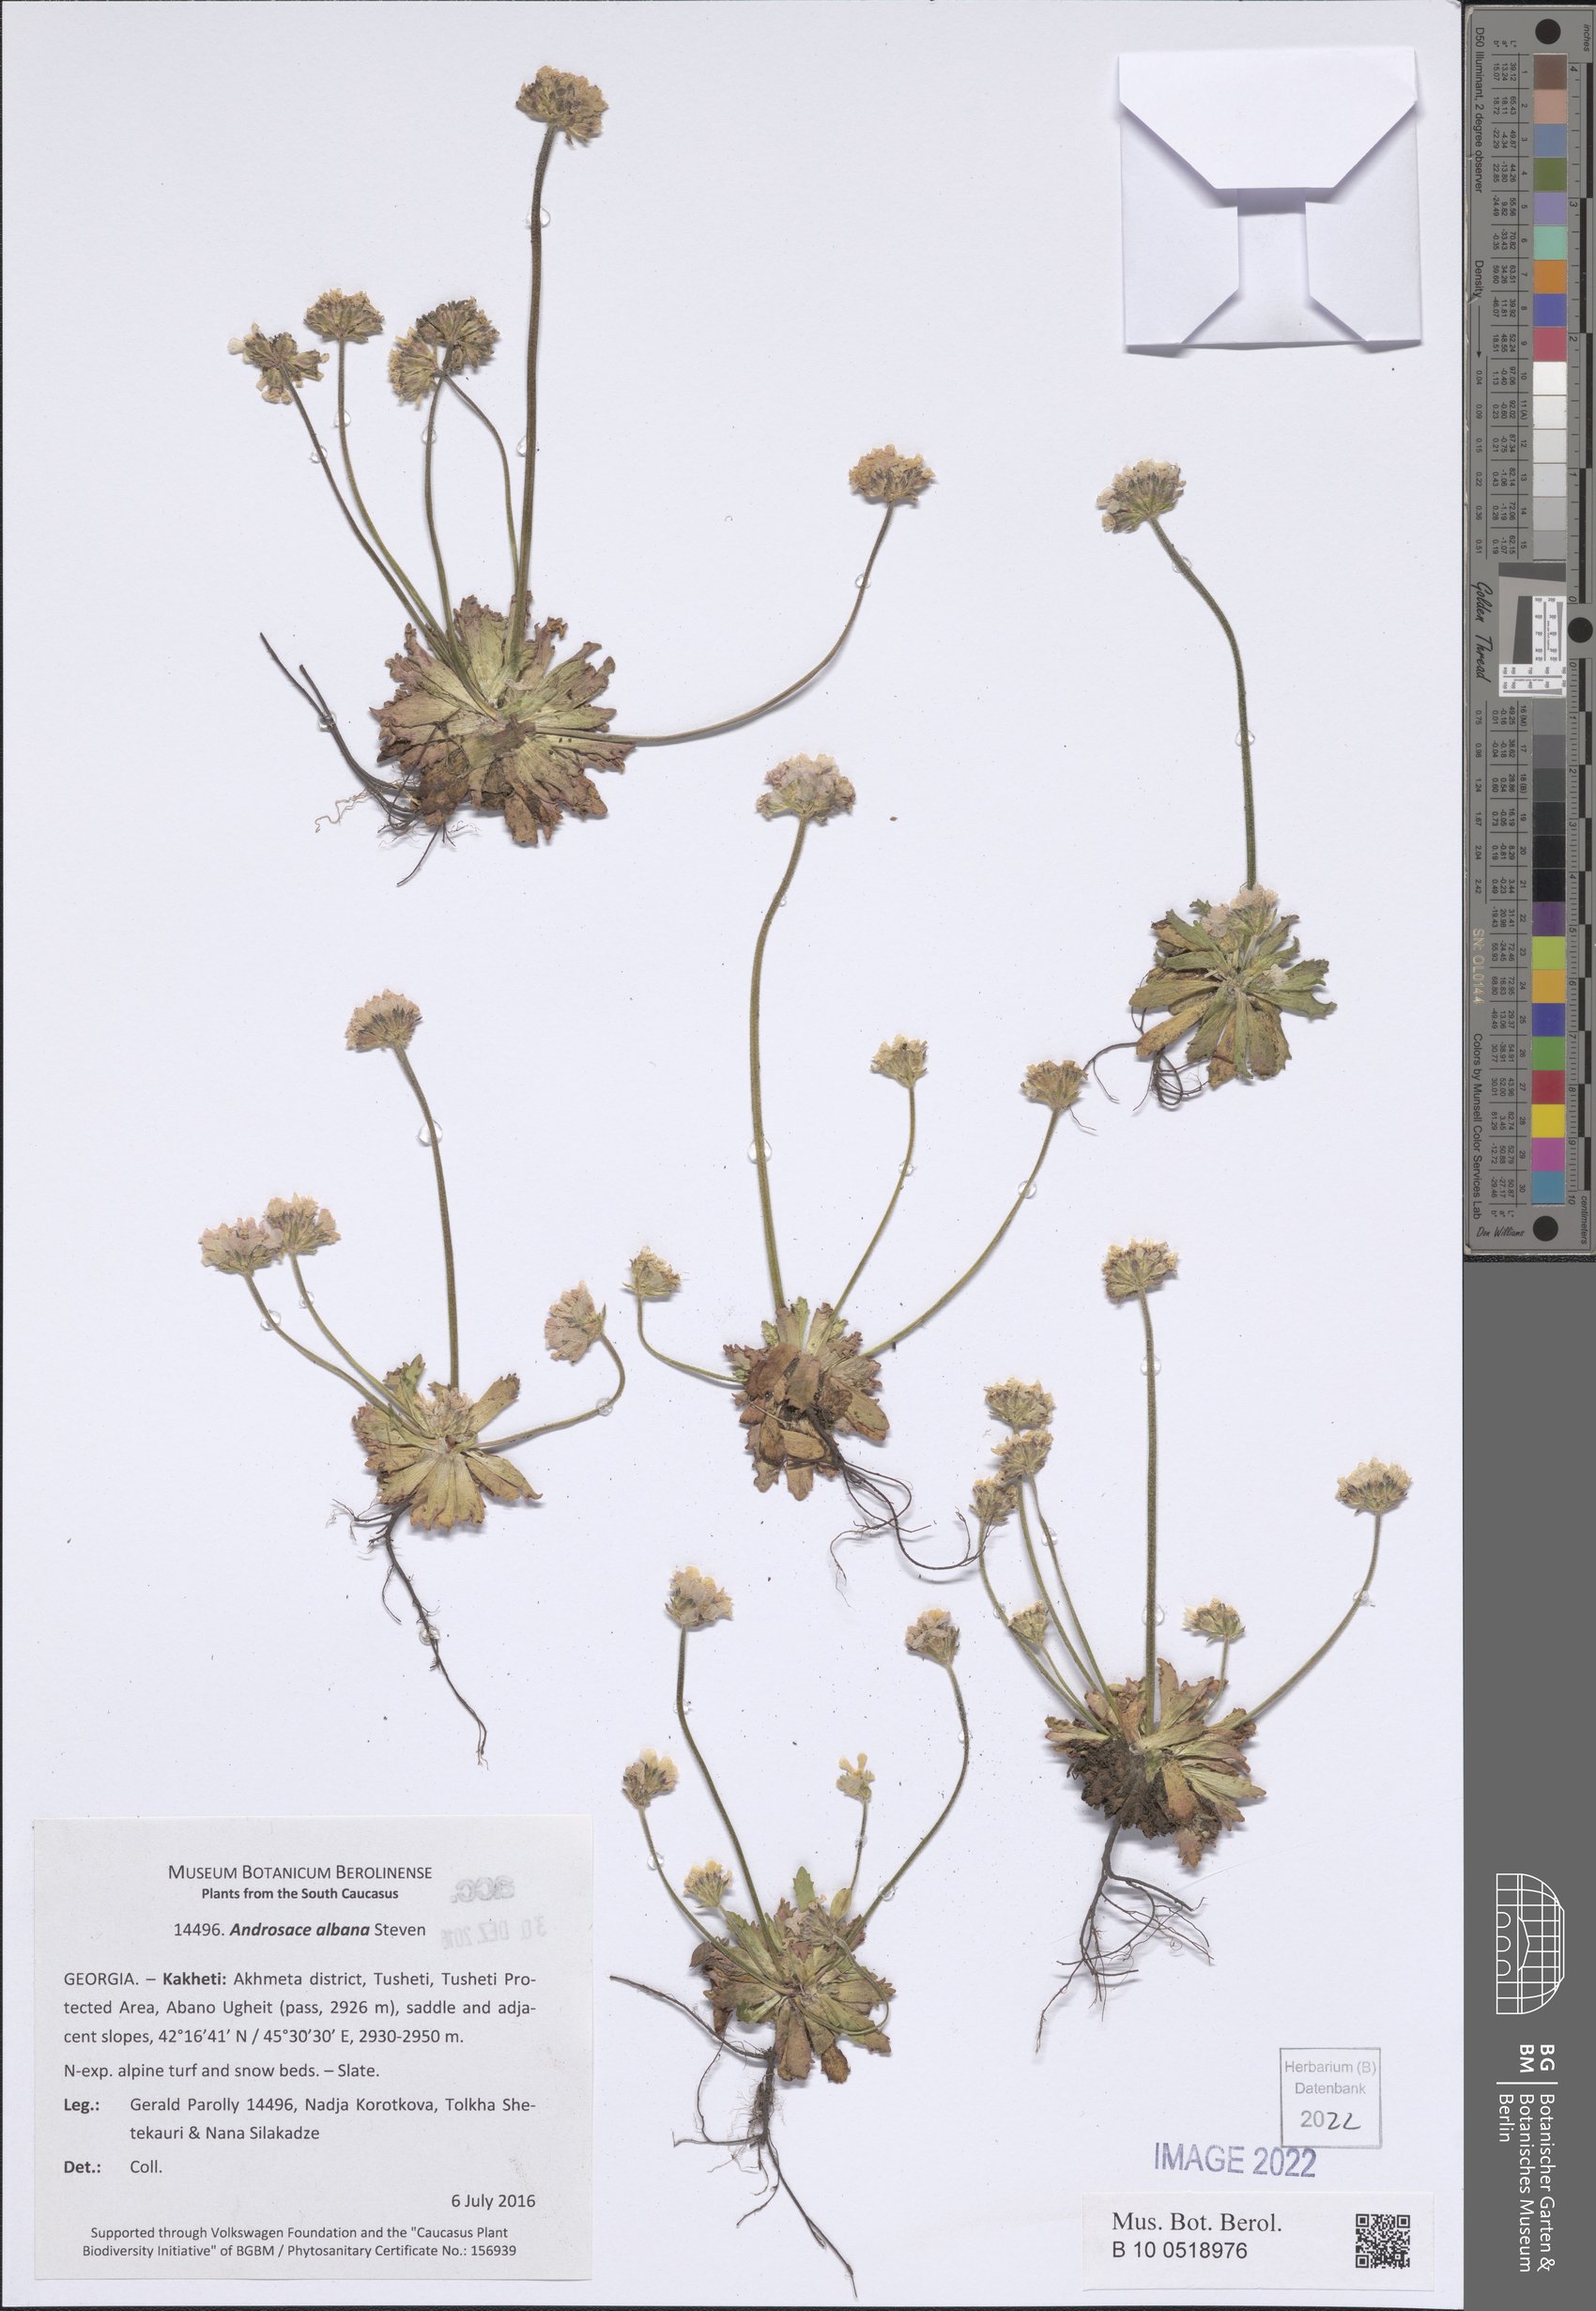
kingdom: Plantae
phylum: Tracheophyta
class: Magnoliopsida
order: Ericales
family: Primulaceae
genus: Androsace
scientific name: Androsace albana
